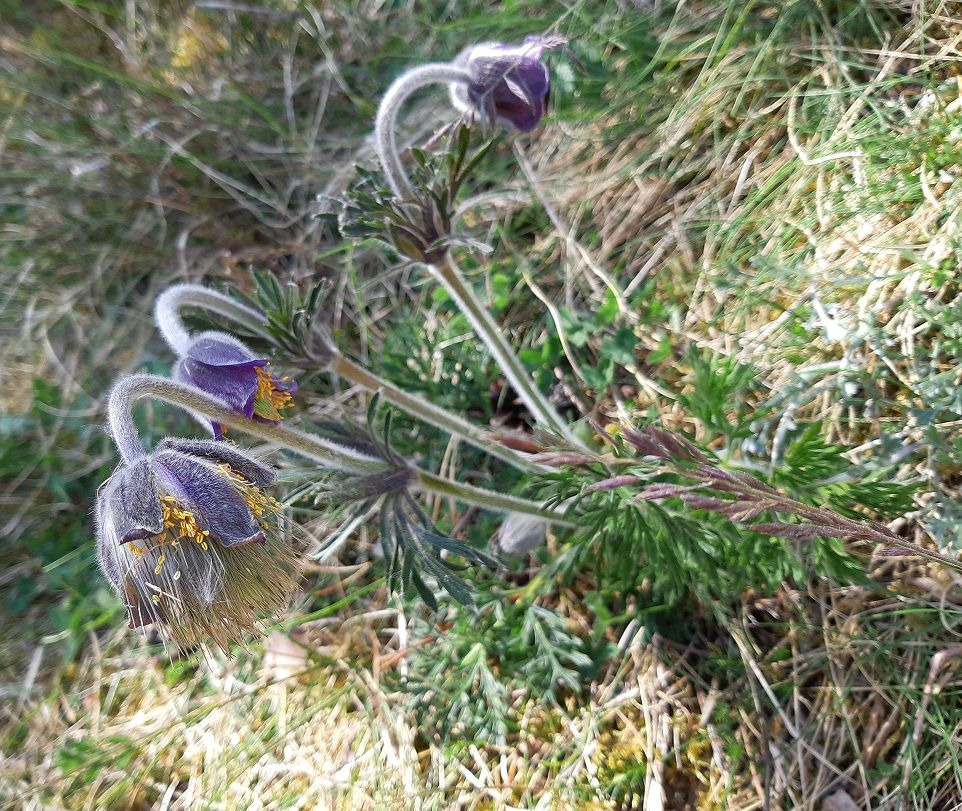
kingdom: Plantae
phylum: Tracheophyta
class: Magnoliopsida
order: Ranunculales
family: Ranunculaceae
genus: Pulsatilla
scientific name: Pulsatilla pratensis
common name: Nikkende kobjælde
